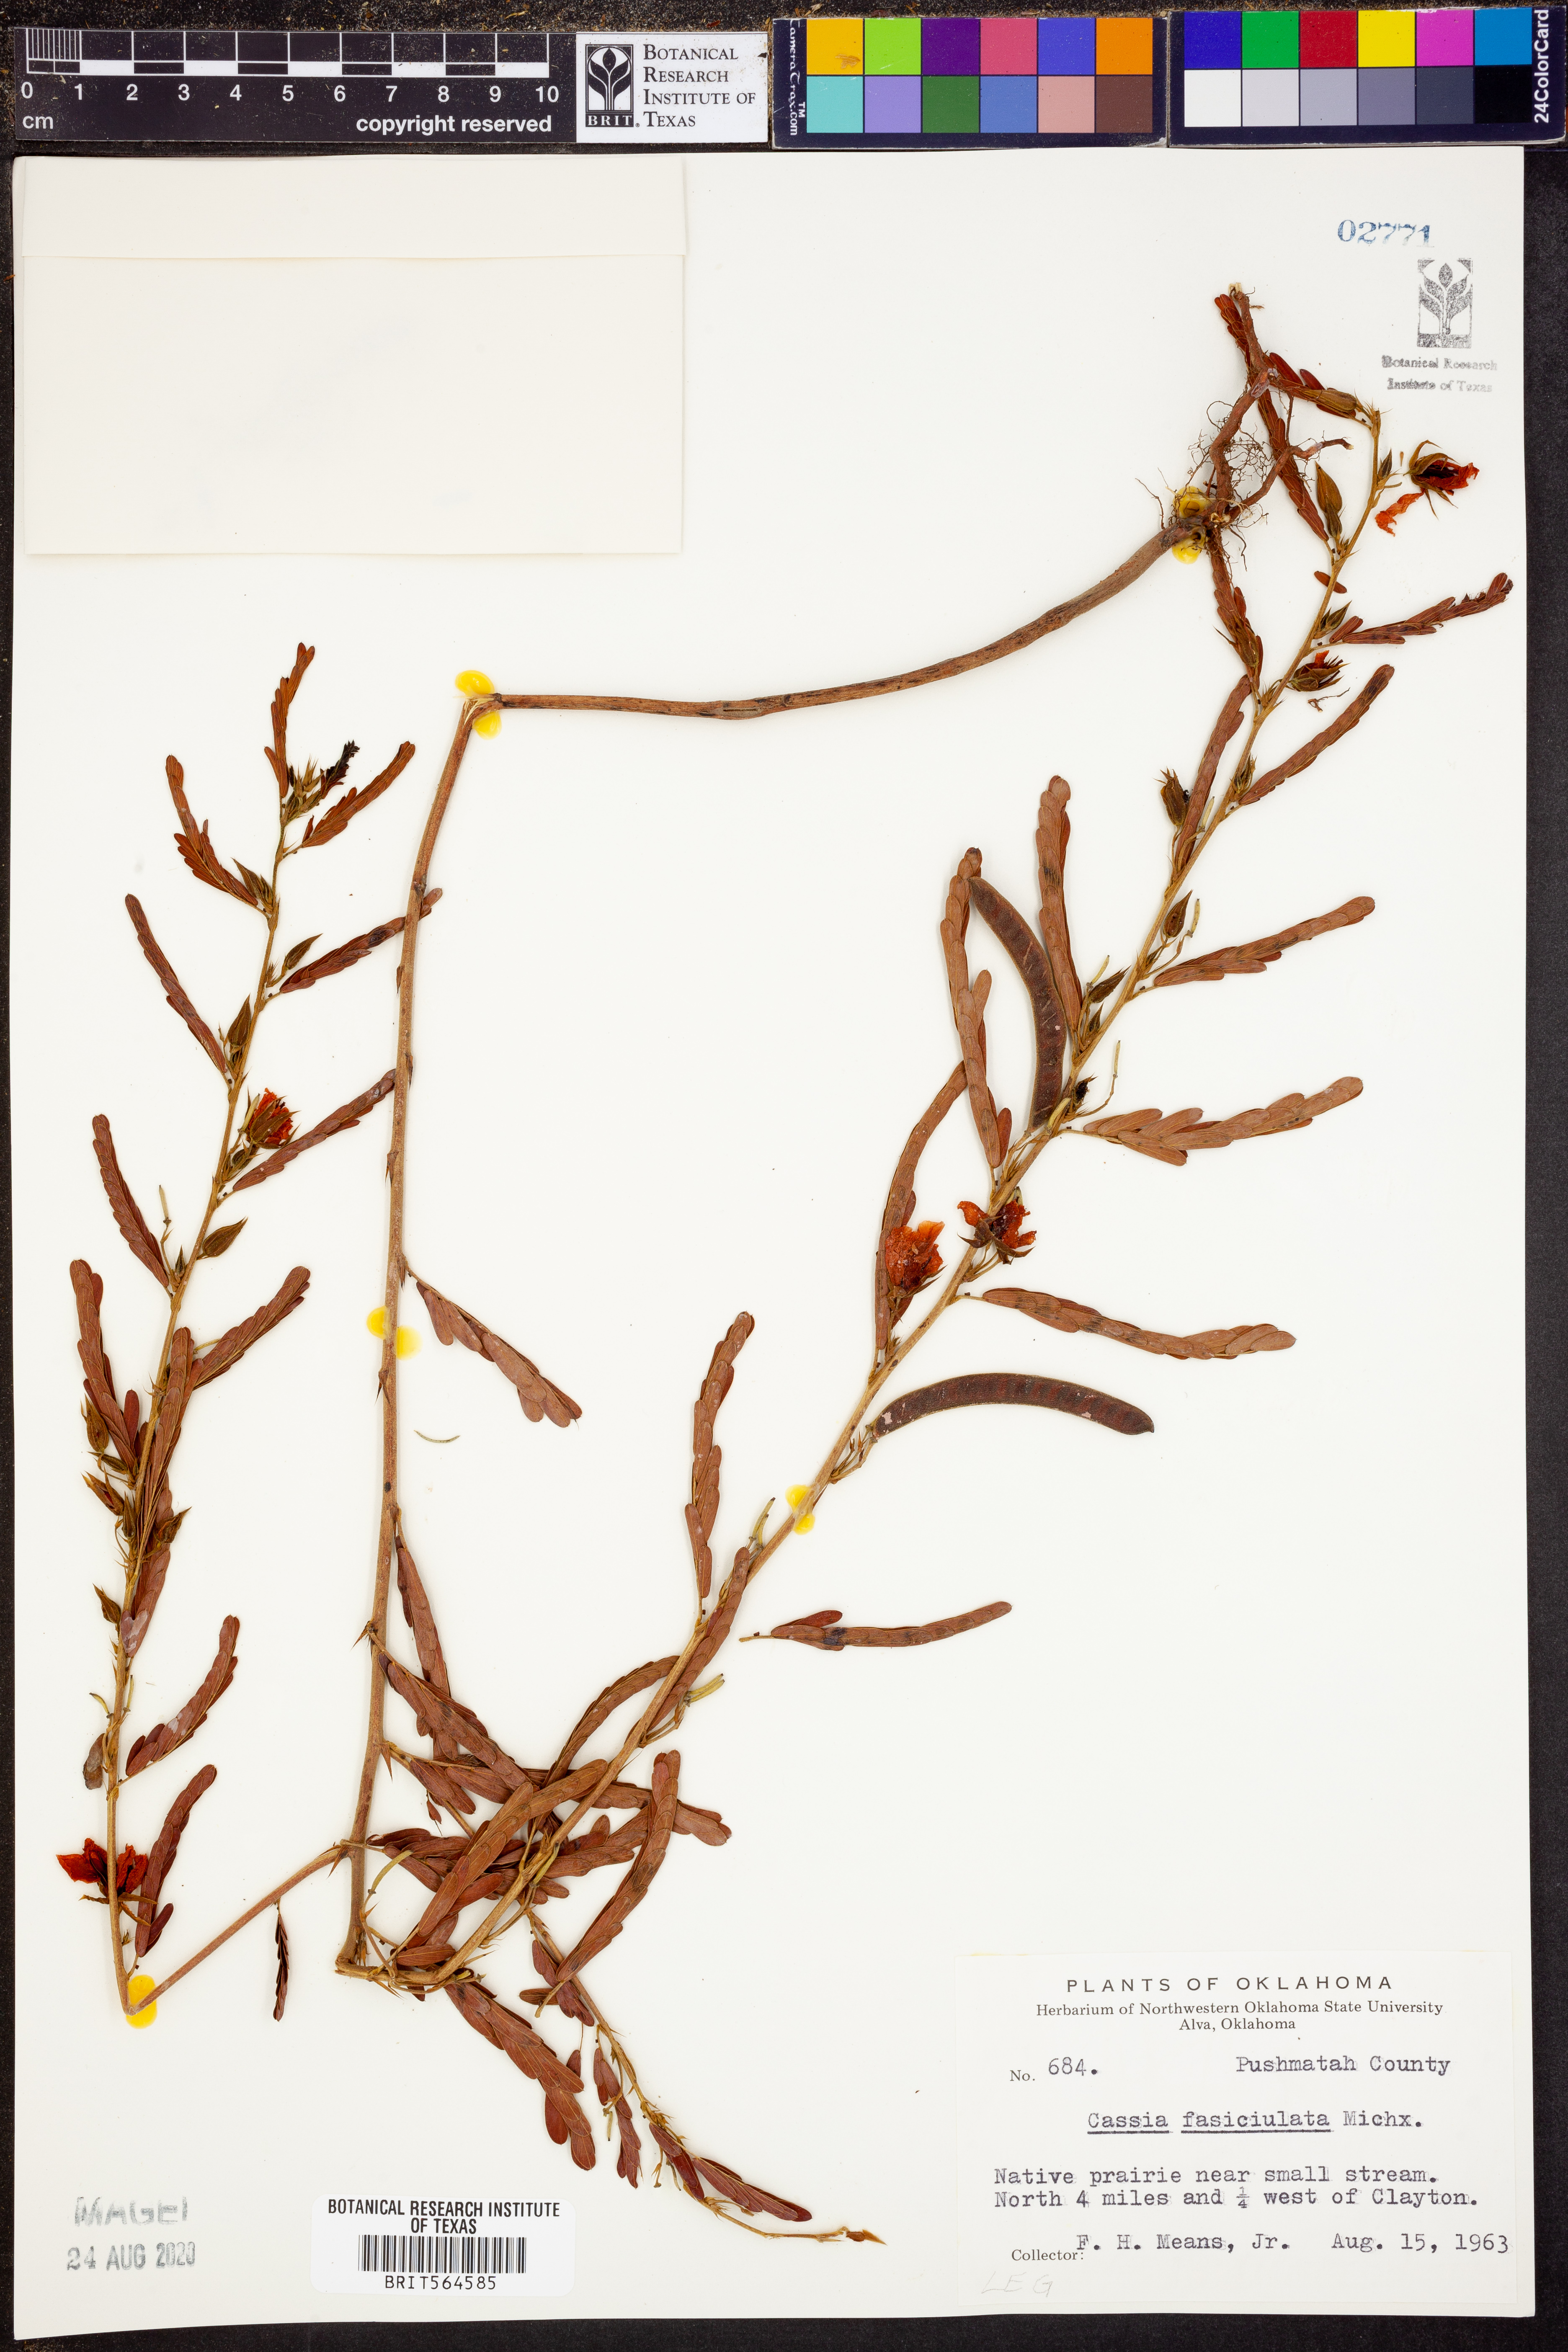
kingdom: Plantae
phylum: Tracheophyta
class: Magnoliopsida
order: Fabales
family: Fabaceae
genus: Chamaecrista
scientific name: Chamaecrista fasciculata
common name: Golden cassia
